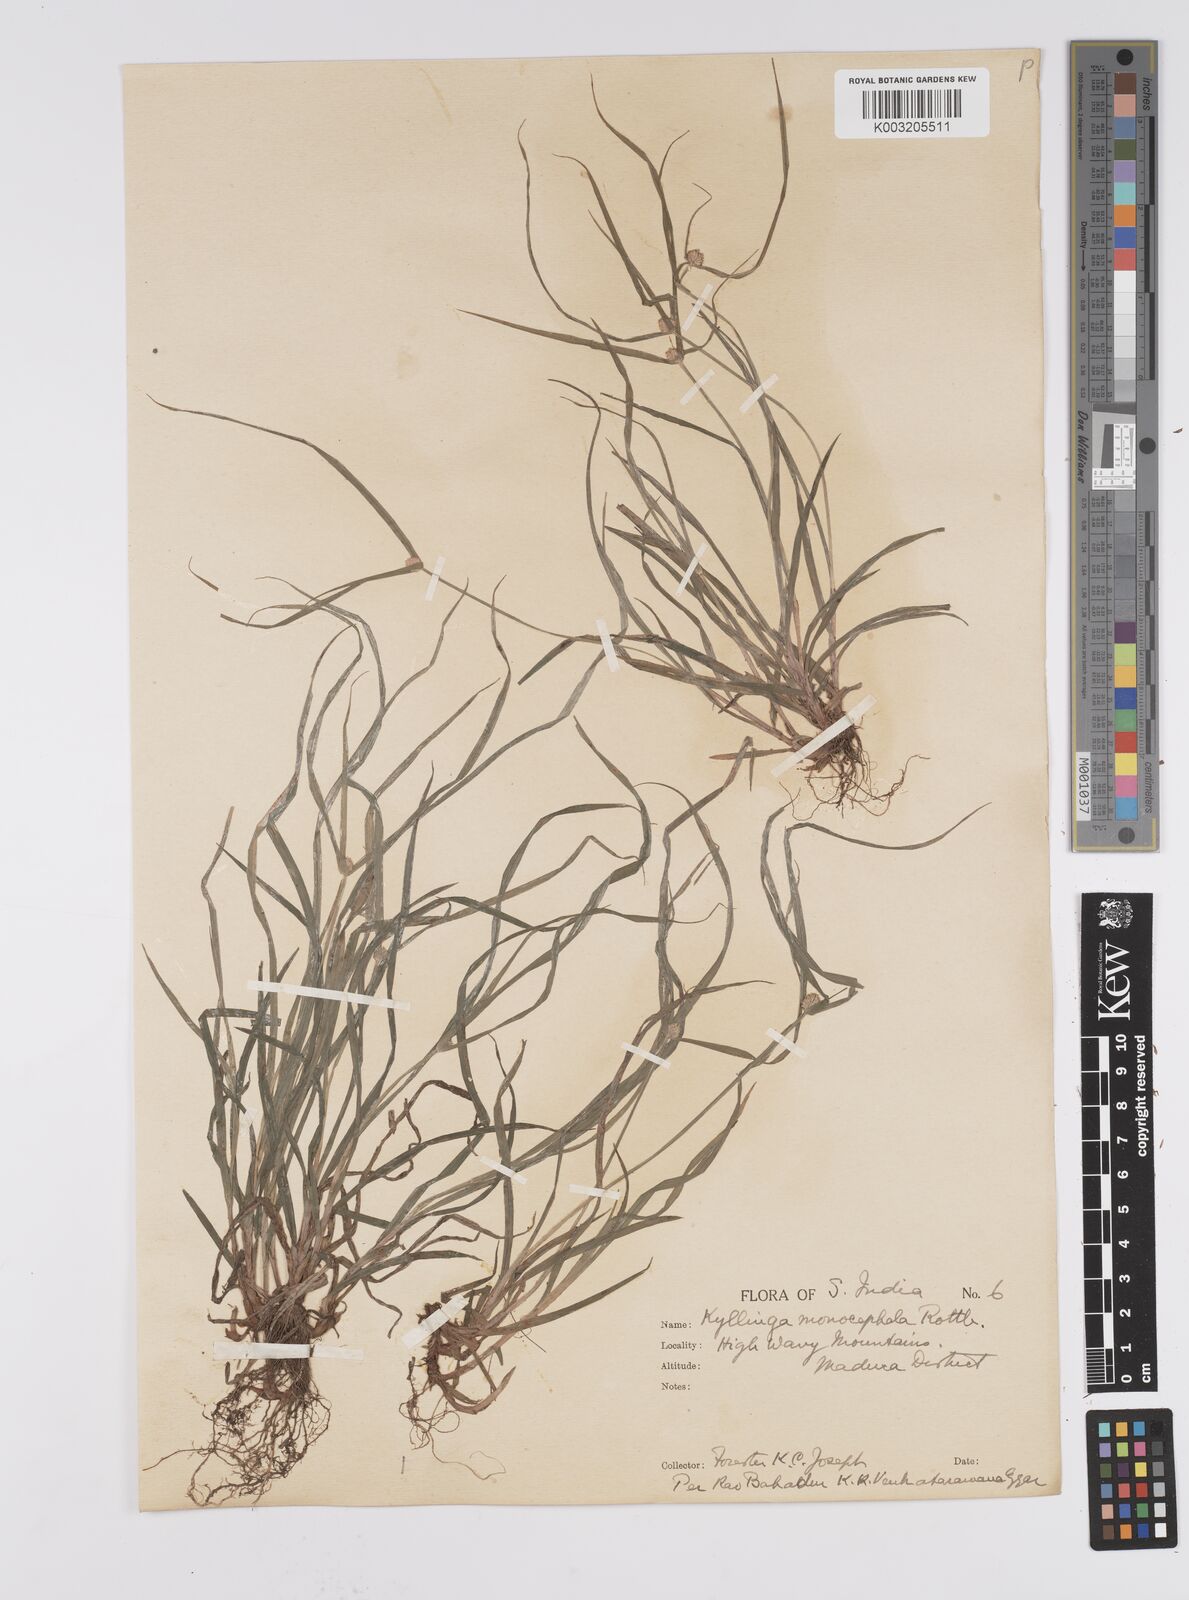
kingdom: Plantae
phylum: Tracheophyta
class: Liliopsida
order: Poales
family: Cyperaceae
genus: Cyperus
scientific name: Cyperus nemoralis
